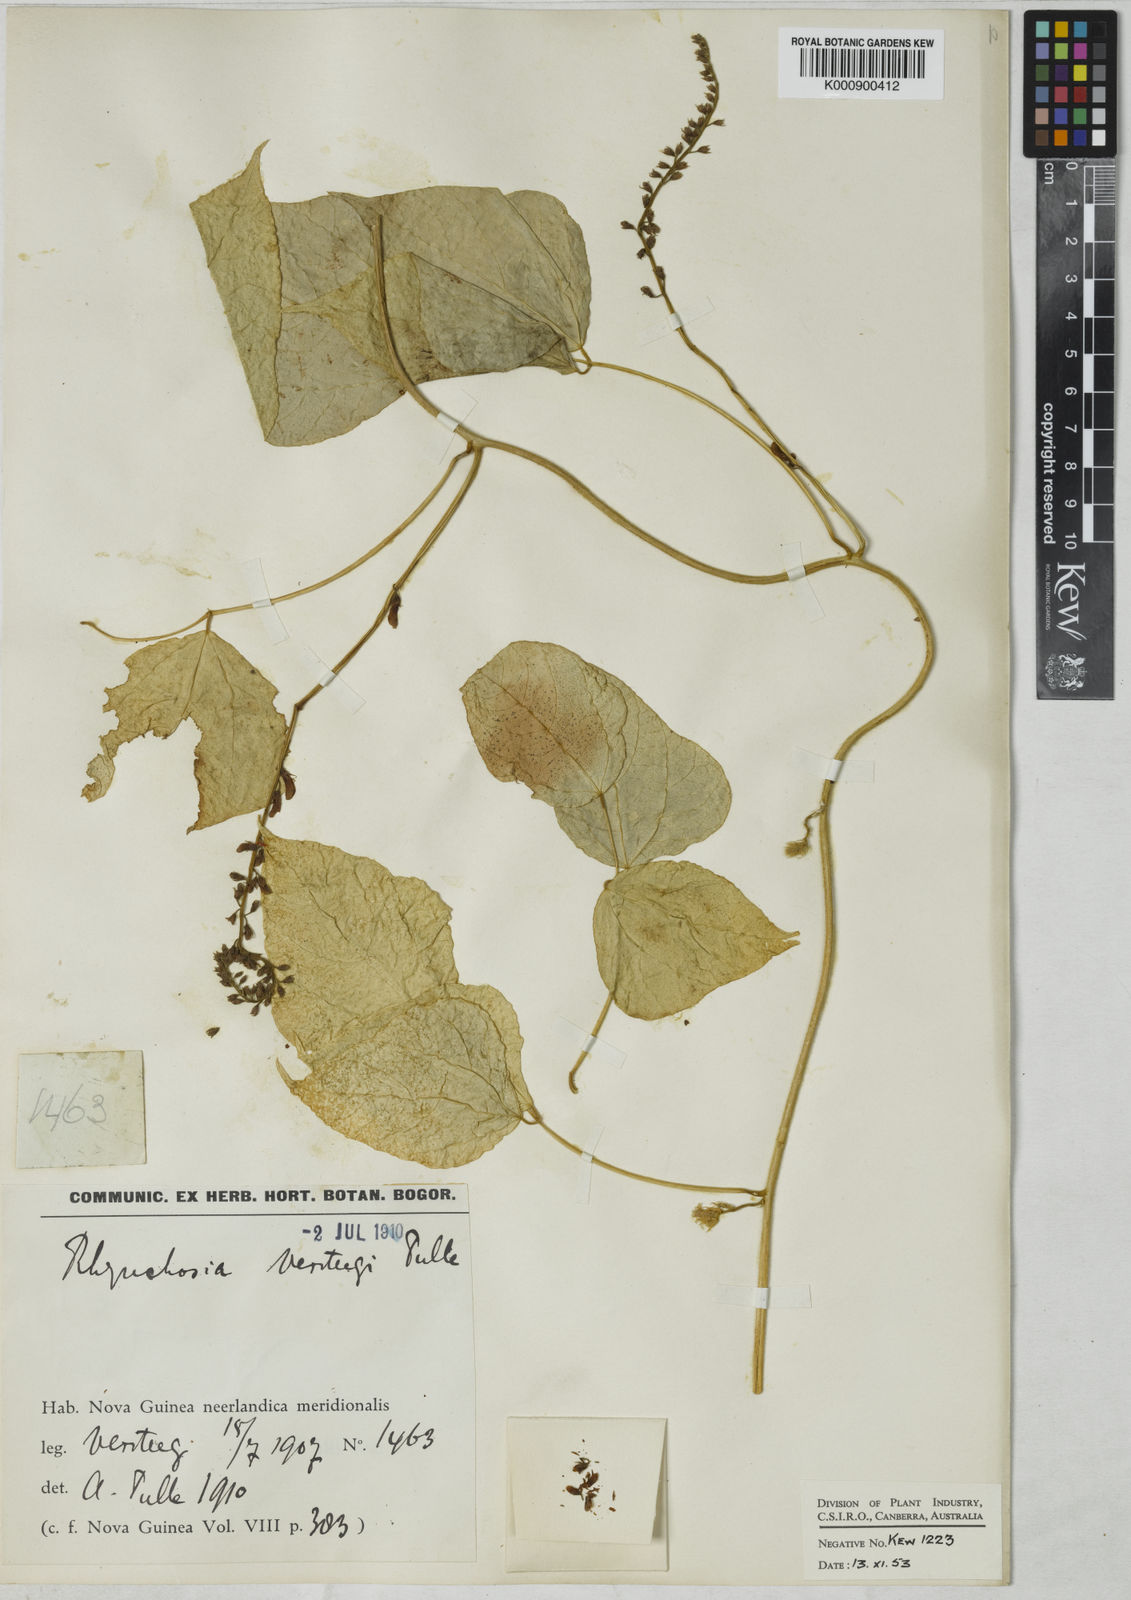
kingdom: Plantae
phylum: Tracheophyta
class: Magnoliopsida
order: Fabales
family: Fabaceae
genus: Rhynchosia
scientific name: Rhynchosia acuminatissima
